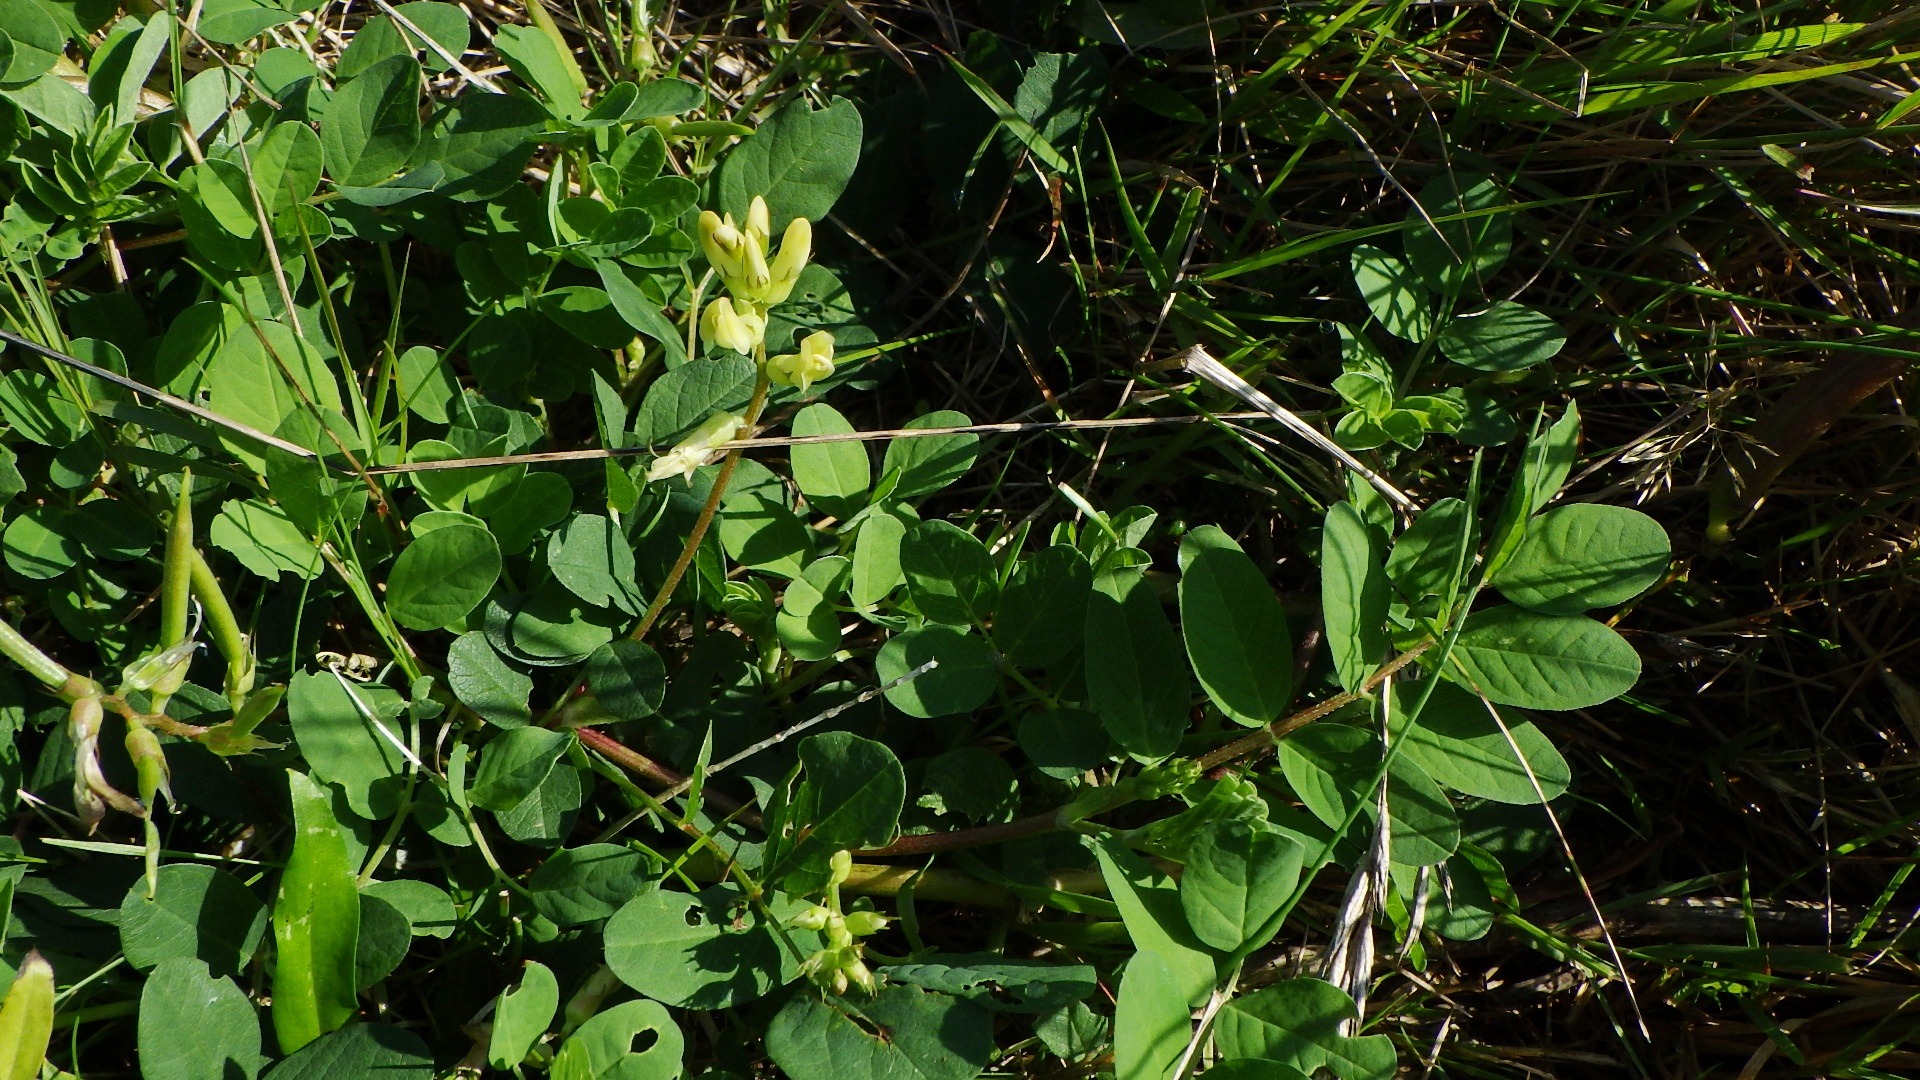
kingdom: Plantae
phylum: Tracheophyta
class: Magnoliopsida
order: Fabales
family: Fabaceae
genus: Astragalus
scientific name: Astragalus glycyphyllos
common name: Sød astragel
